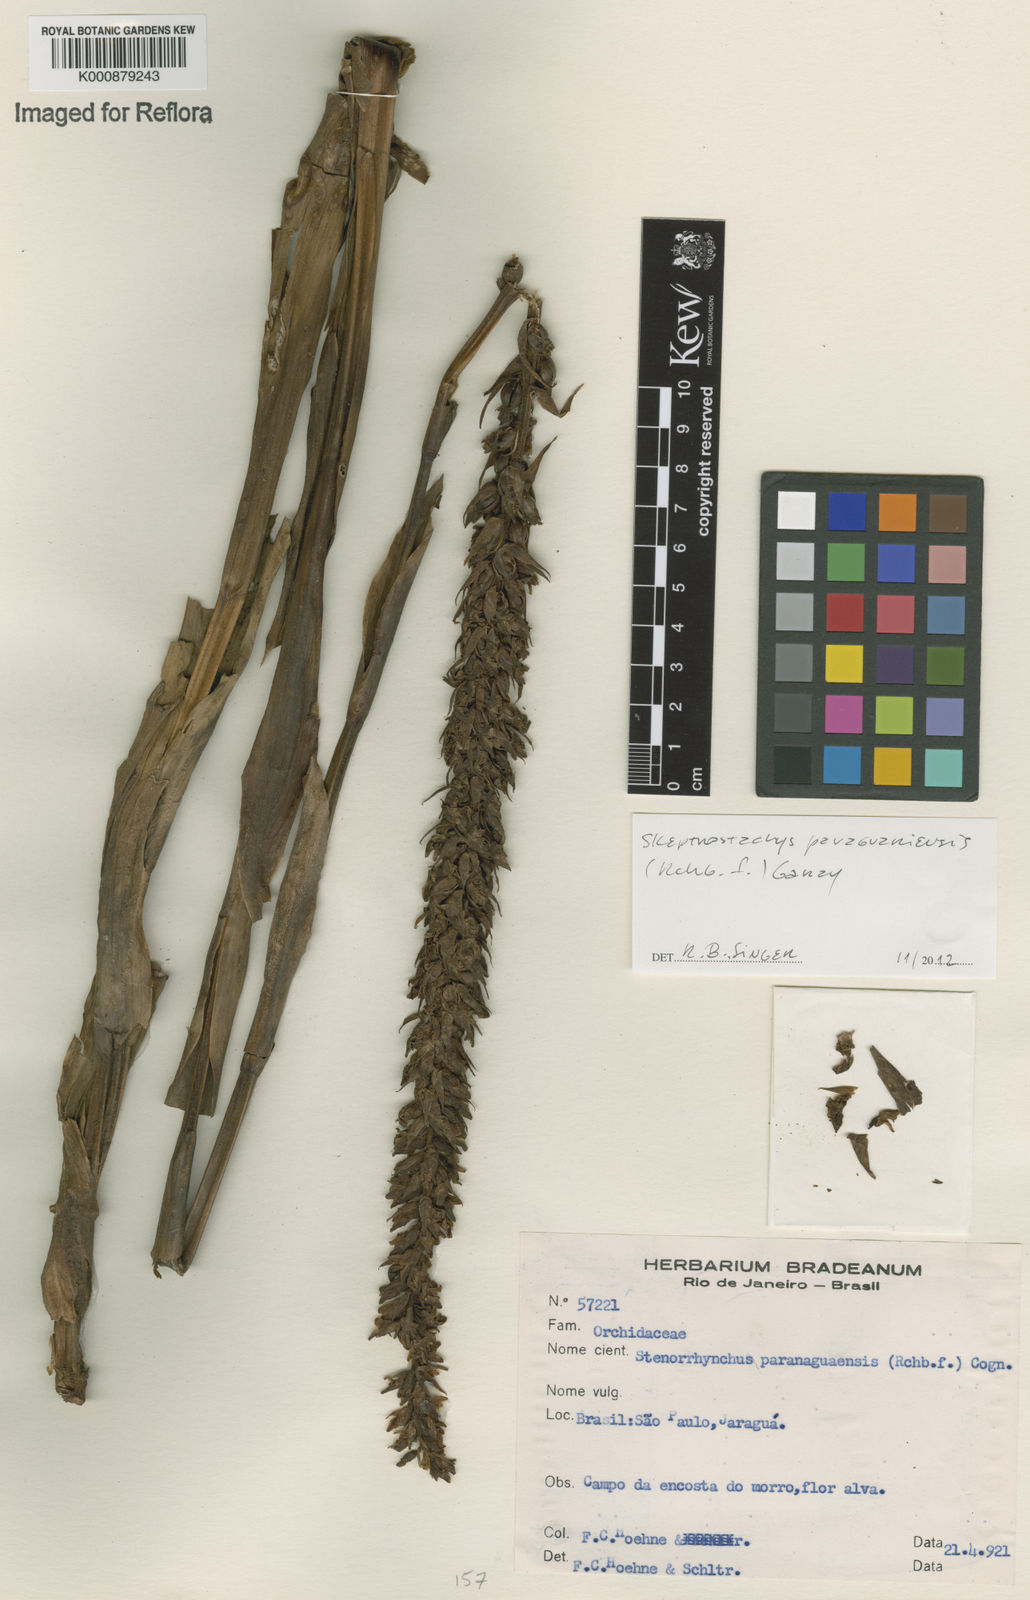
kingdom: Plantae
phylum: Tracheophyta
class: Liliopsida
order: Asparagales
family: Orchidaceae
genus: Skeptrostachys
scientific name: Skeptrostachys paraguayensis
